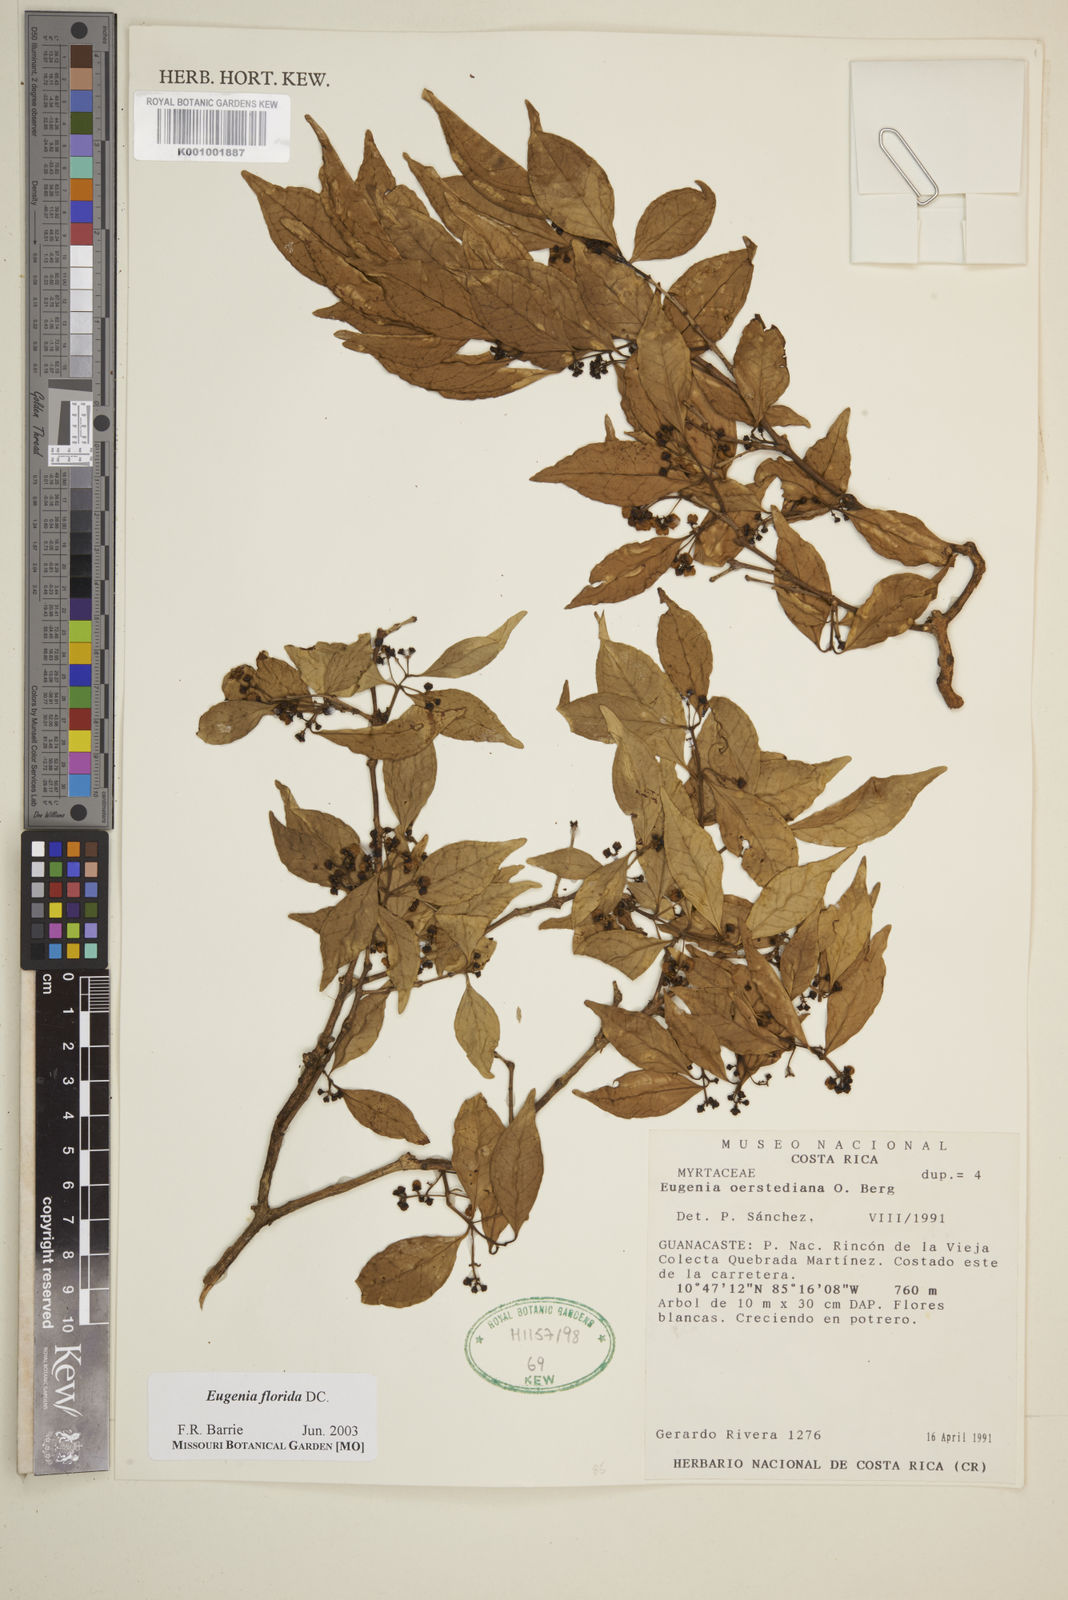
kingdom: Plantae
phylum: Tracheophyta
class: Magnoliopsida
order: Myrtales
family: Myrtaceae
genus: Eugenia
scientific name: Eugenia florida
